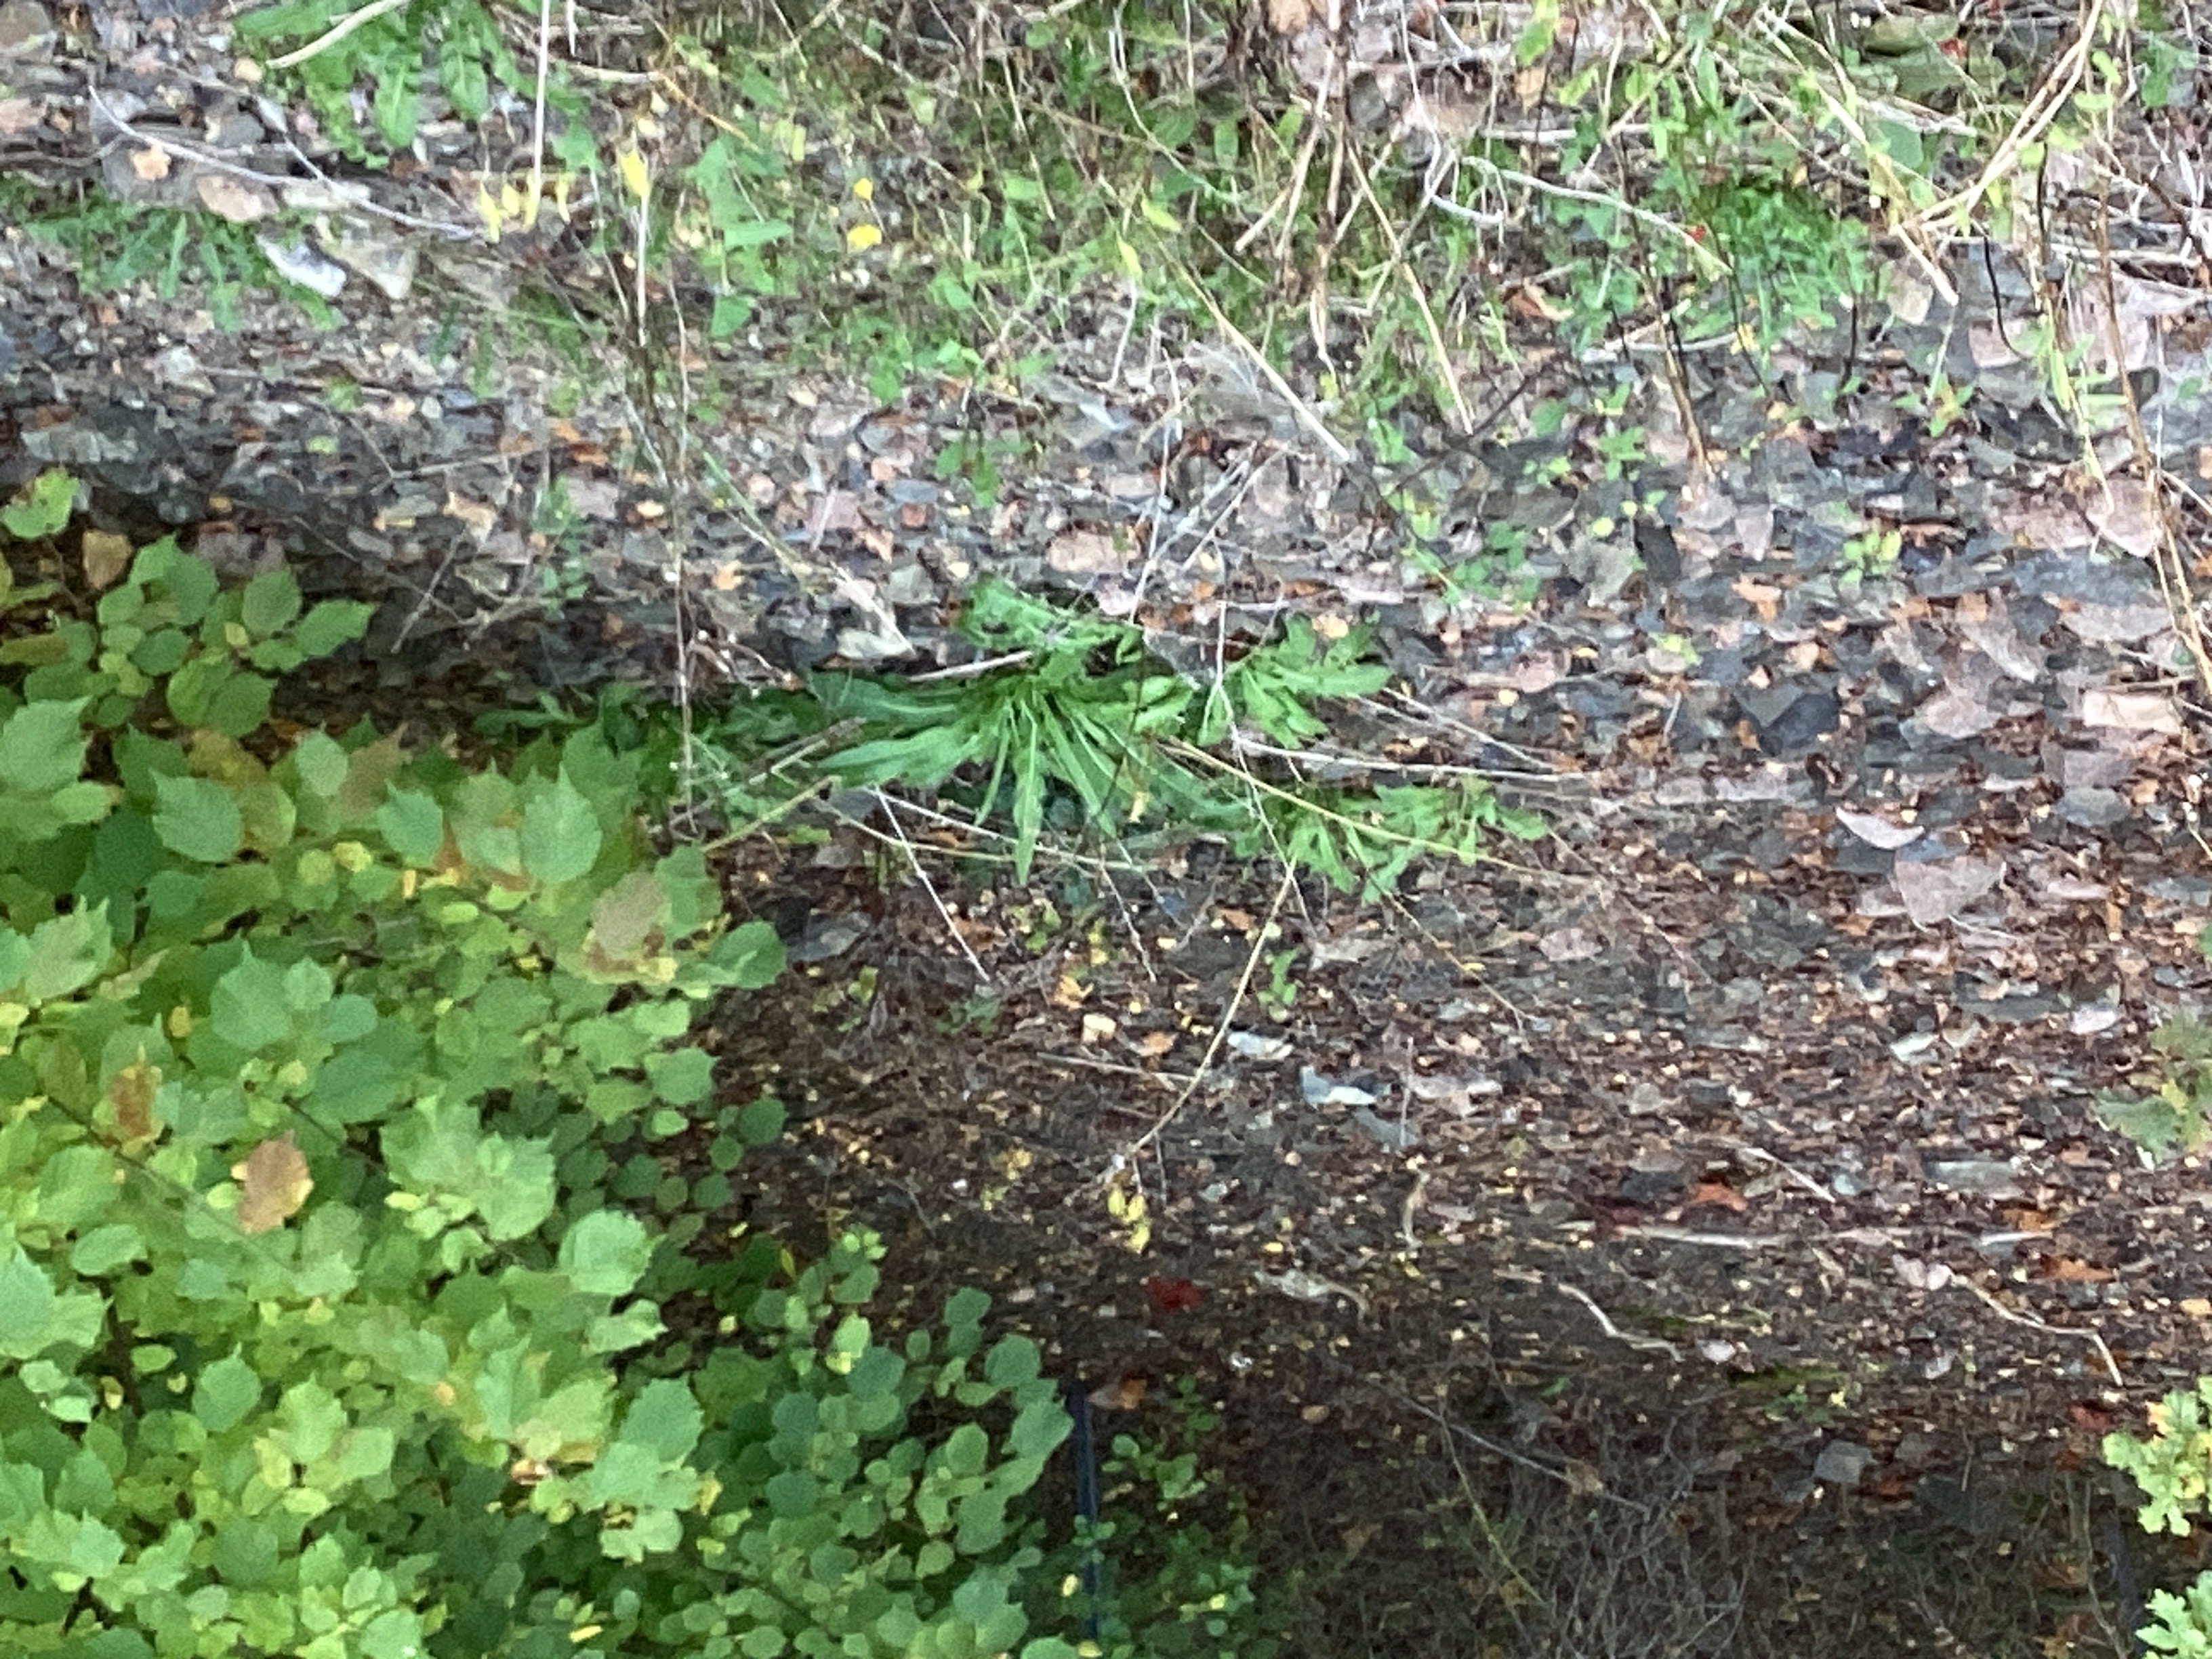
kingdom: Plantae
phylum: Tracheophyta
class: Magnoliopsida
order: Brassicales
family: Brassicaceae
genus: Bunias
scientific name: Bunias orientalis
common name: russekål
